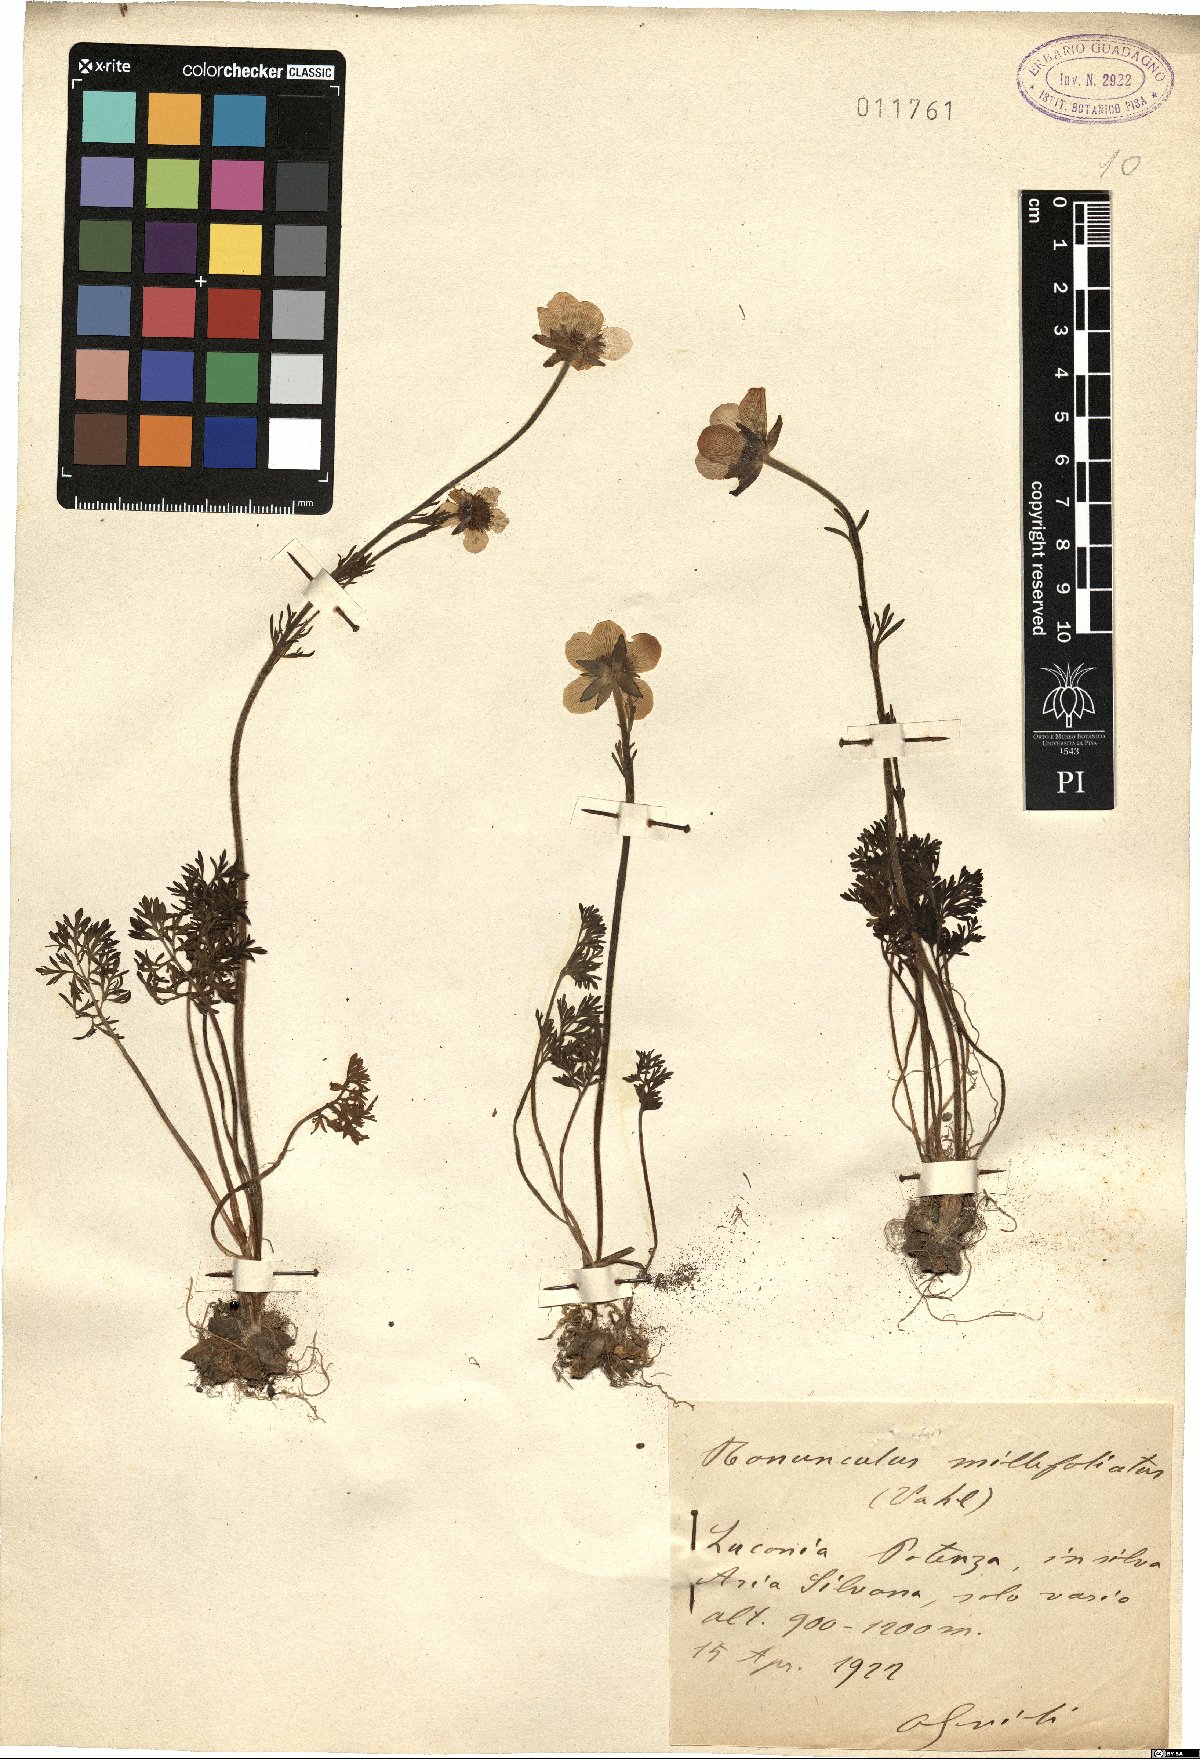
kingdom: Plantae
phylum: Tracheophyta
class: Magnoliopsida
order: Ranunculales
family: Ranunculaceae
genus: Ranunculus
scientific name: Ranunculus millefoliatus
